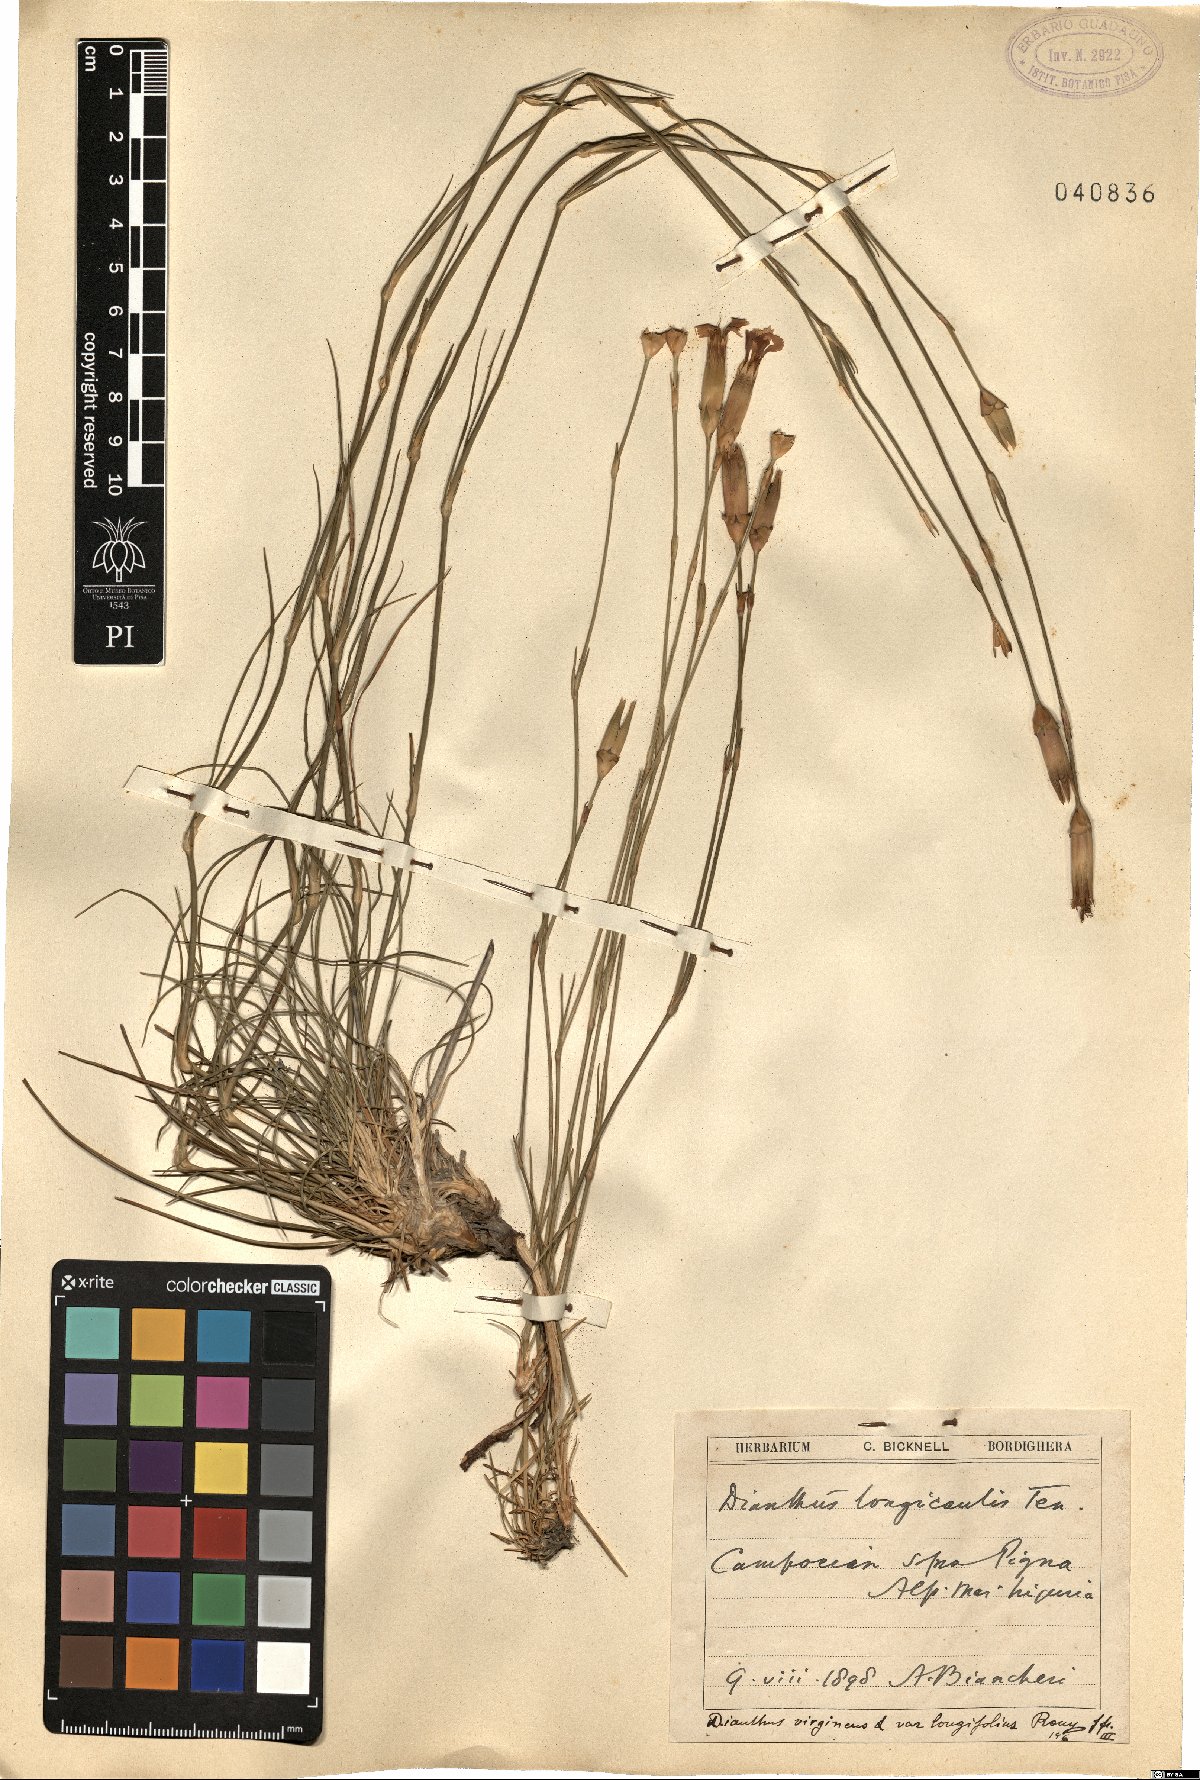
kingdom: Plantae
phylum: Tracheophyta
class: Magnoliopsida
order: Caryophyllales
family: Caryophyllaceae
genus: Dianthus
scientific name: Dianthus virgineus
